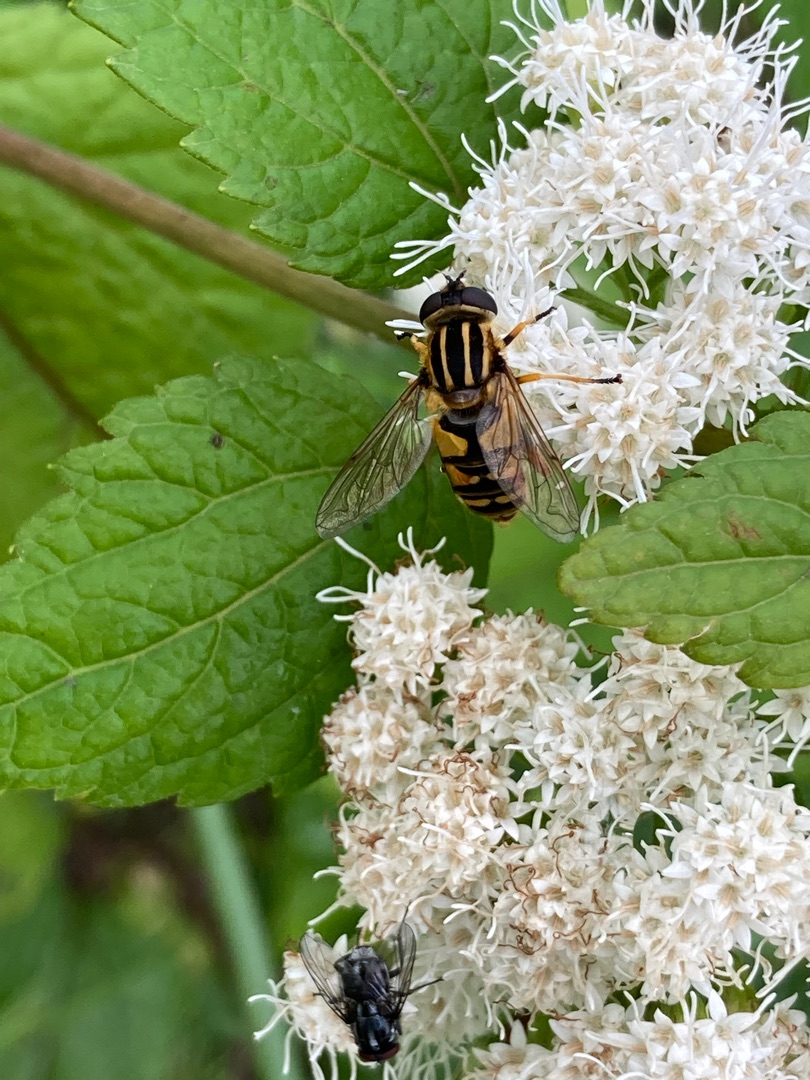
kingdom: Animalia
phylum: Arthropoda
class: Insecta
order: Diptera
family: Syrphidae
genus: Helophilus
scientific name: Helophilus pendulus
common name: Almindelig sumpsvirreflue
